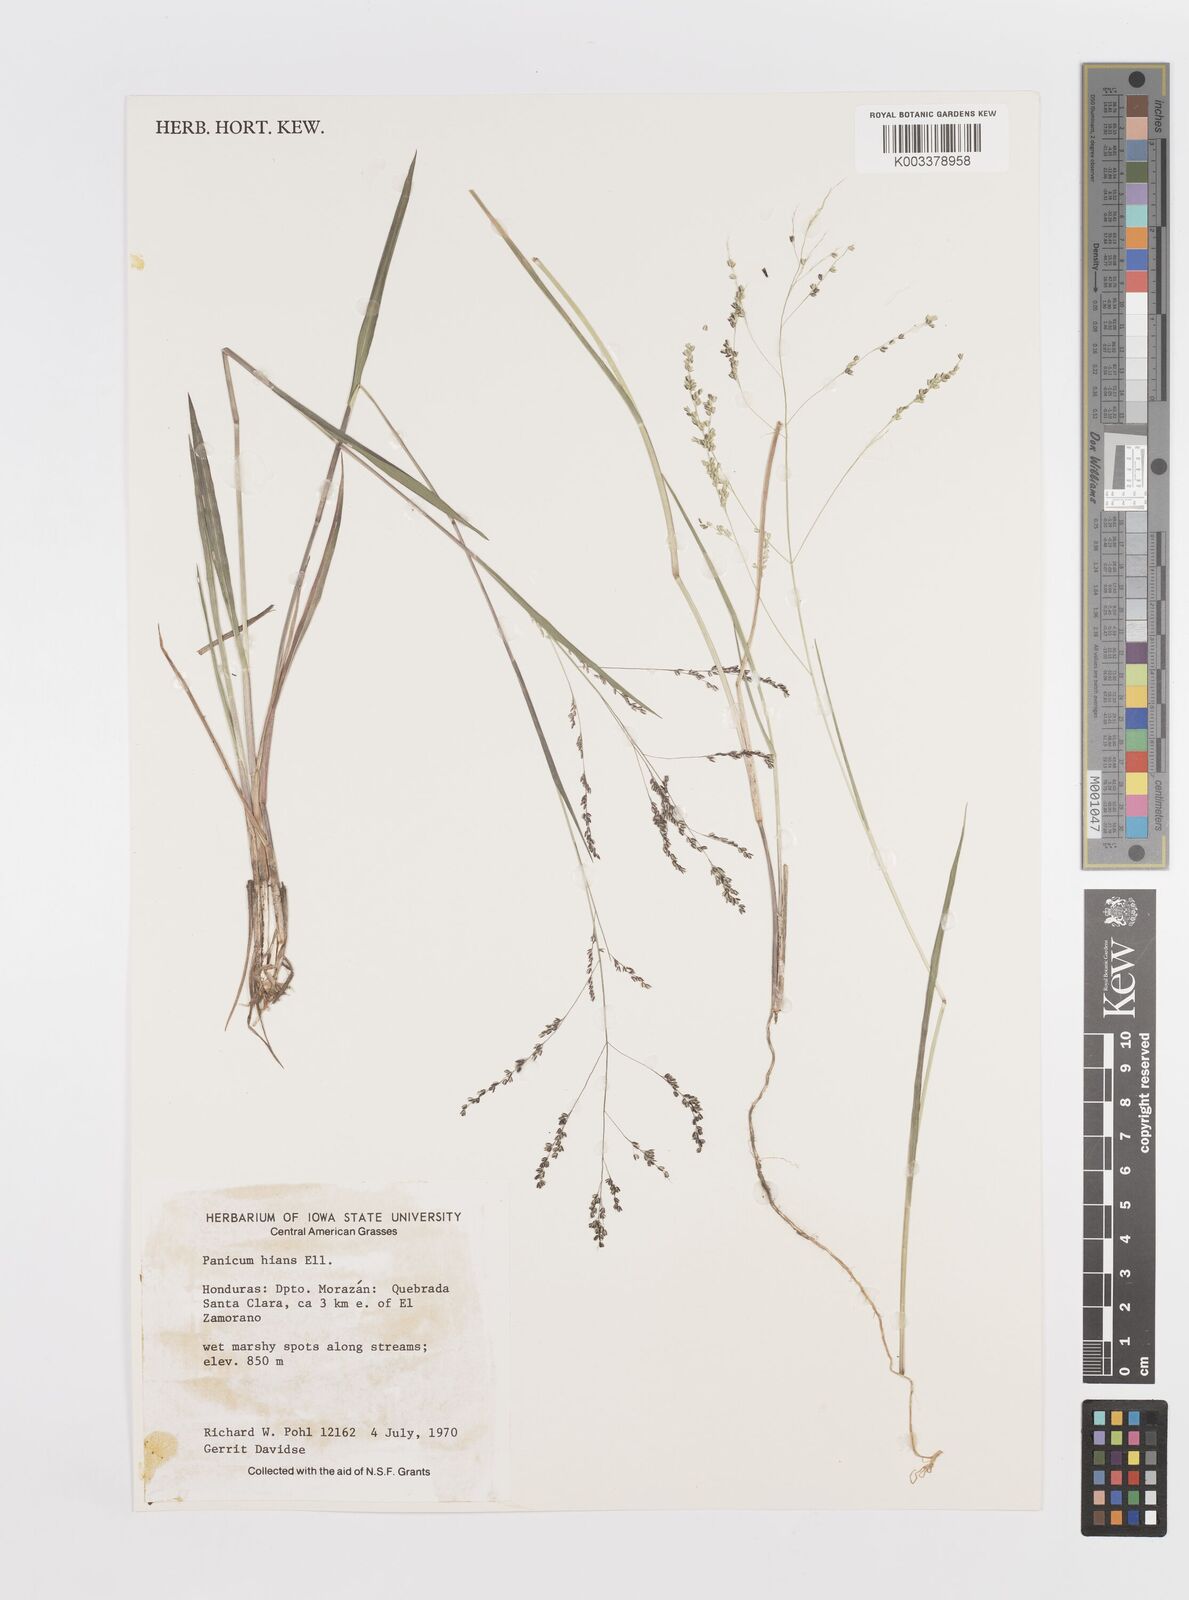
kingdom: Plantae
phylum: Tracheophyta
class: Liliopsida
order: Poales
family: Poaceae
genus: Steinchisma
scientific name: Steinchisma hians
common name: Gaping panic grass
